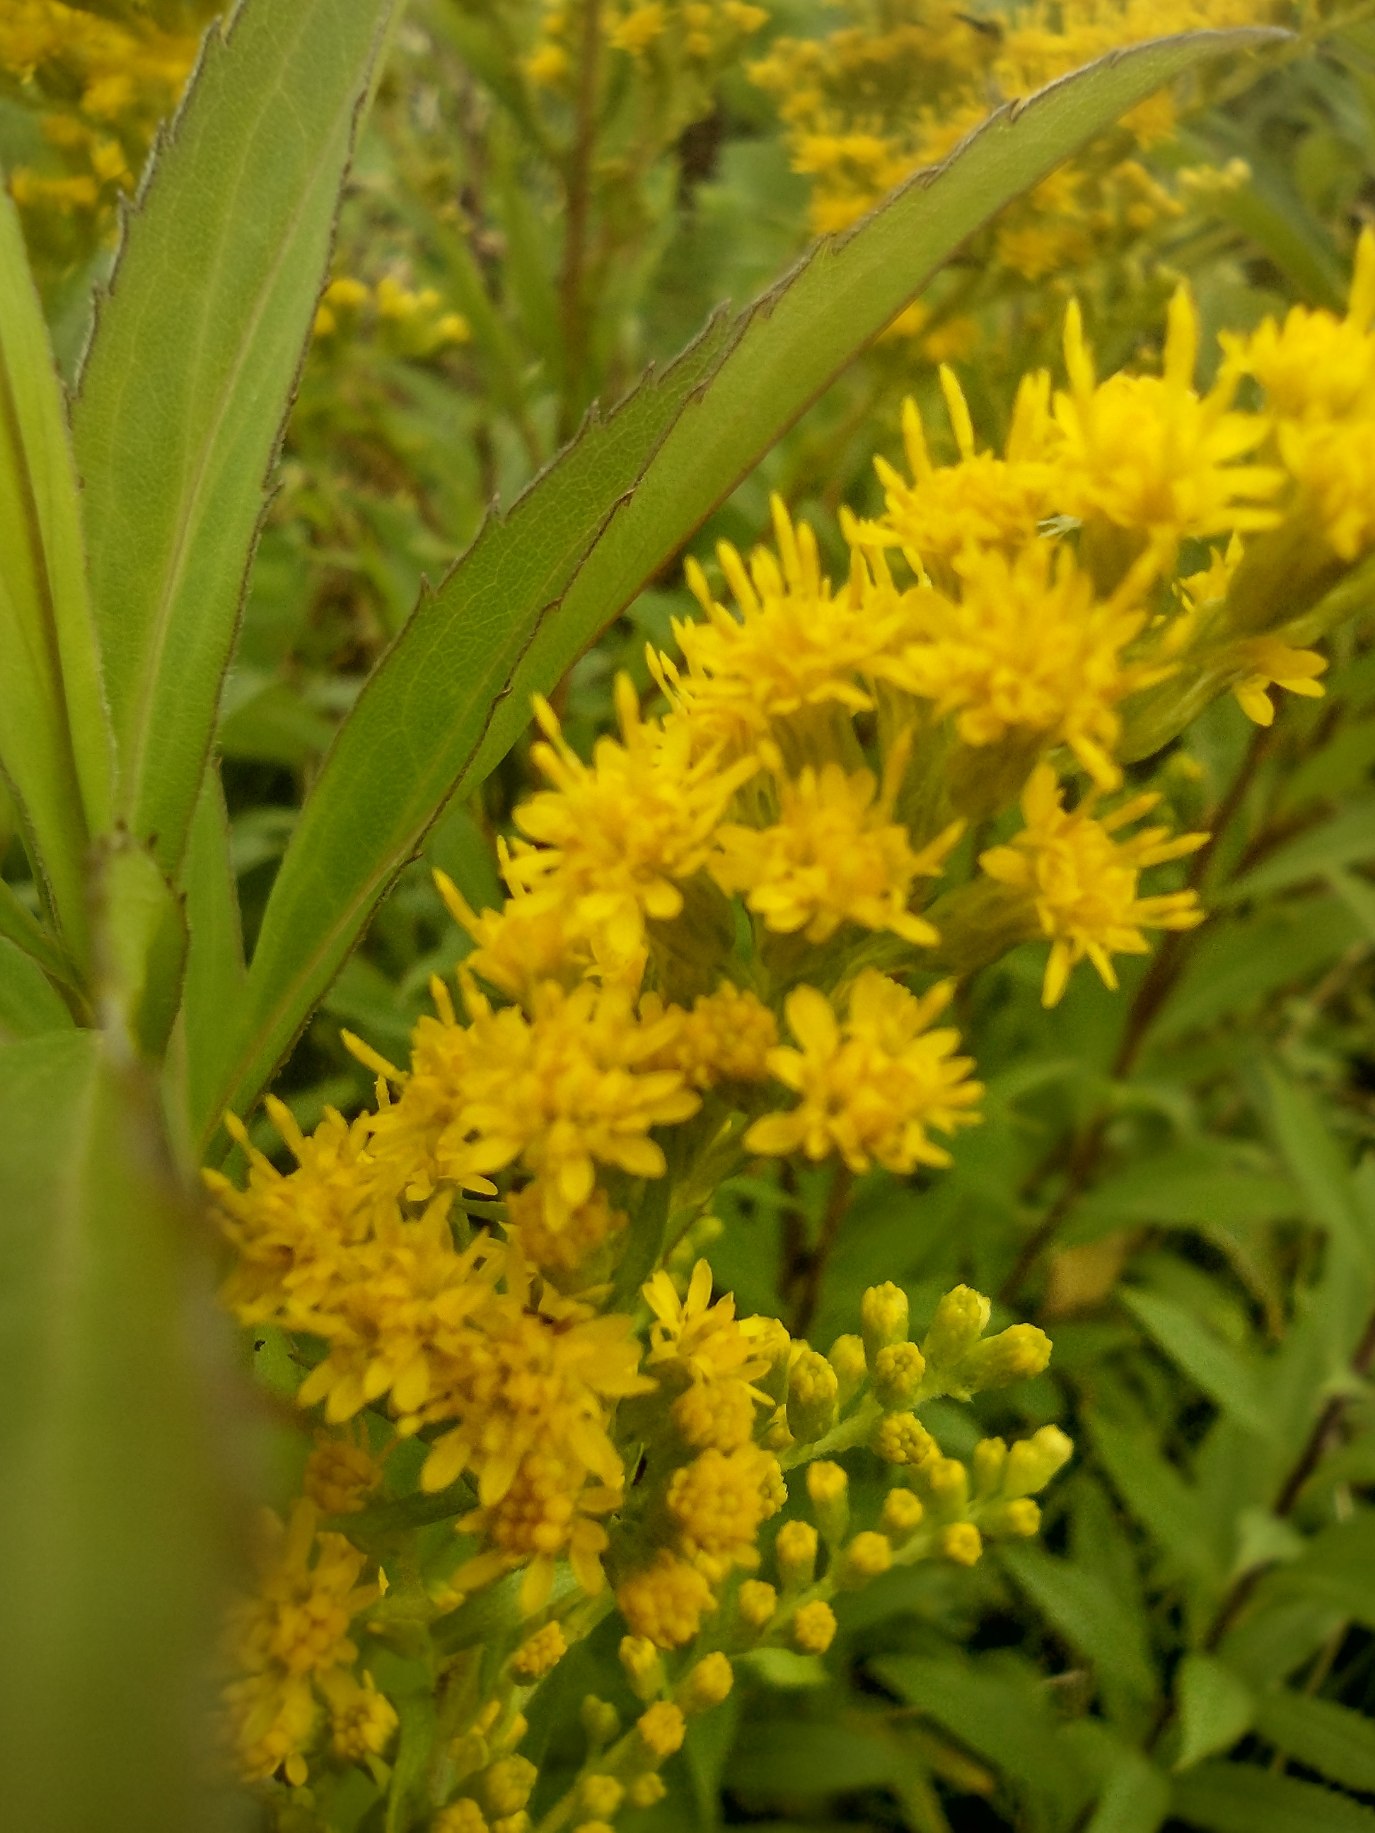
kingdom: Plantae
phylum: Tracheophyta
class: Magnoliopsida
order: Asterales
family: Asteraceae
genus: Solidago
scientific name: Solidago gigantea
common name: Sildig gyldenris
